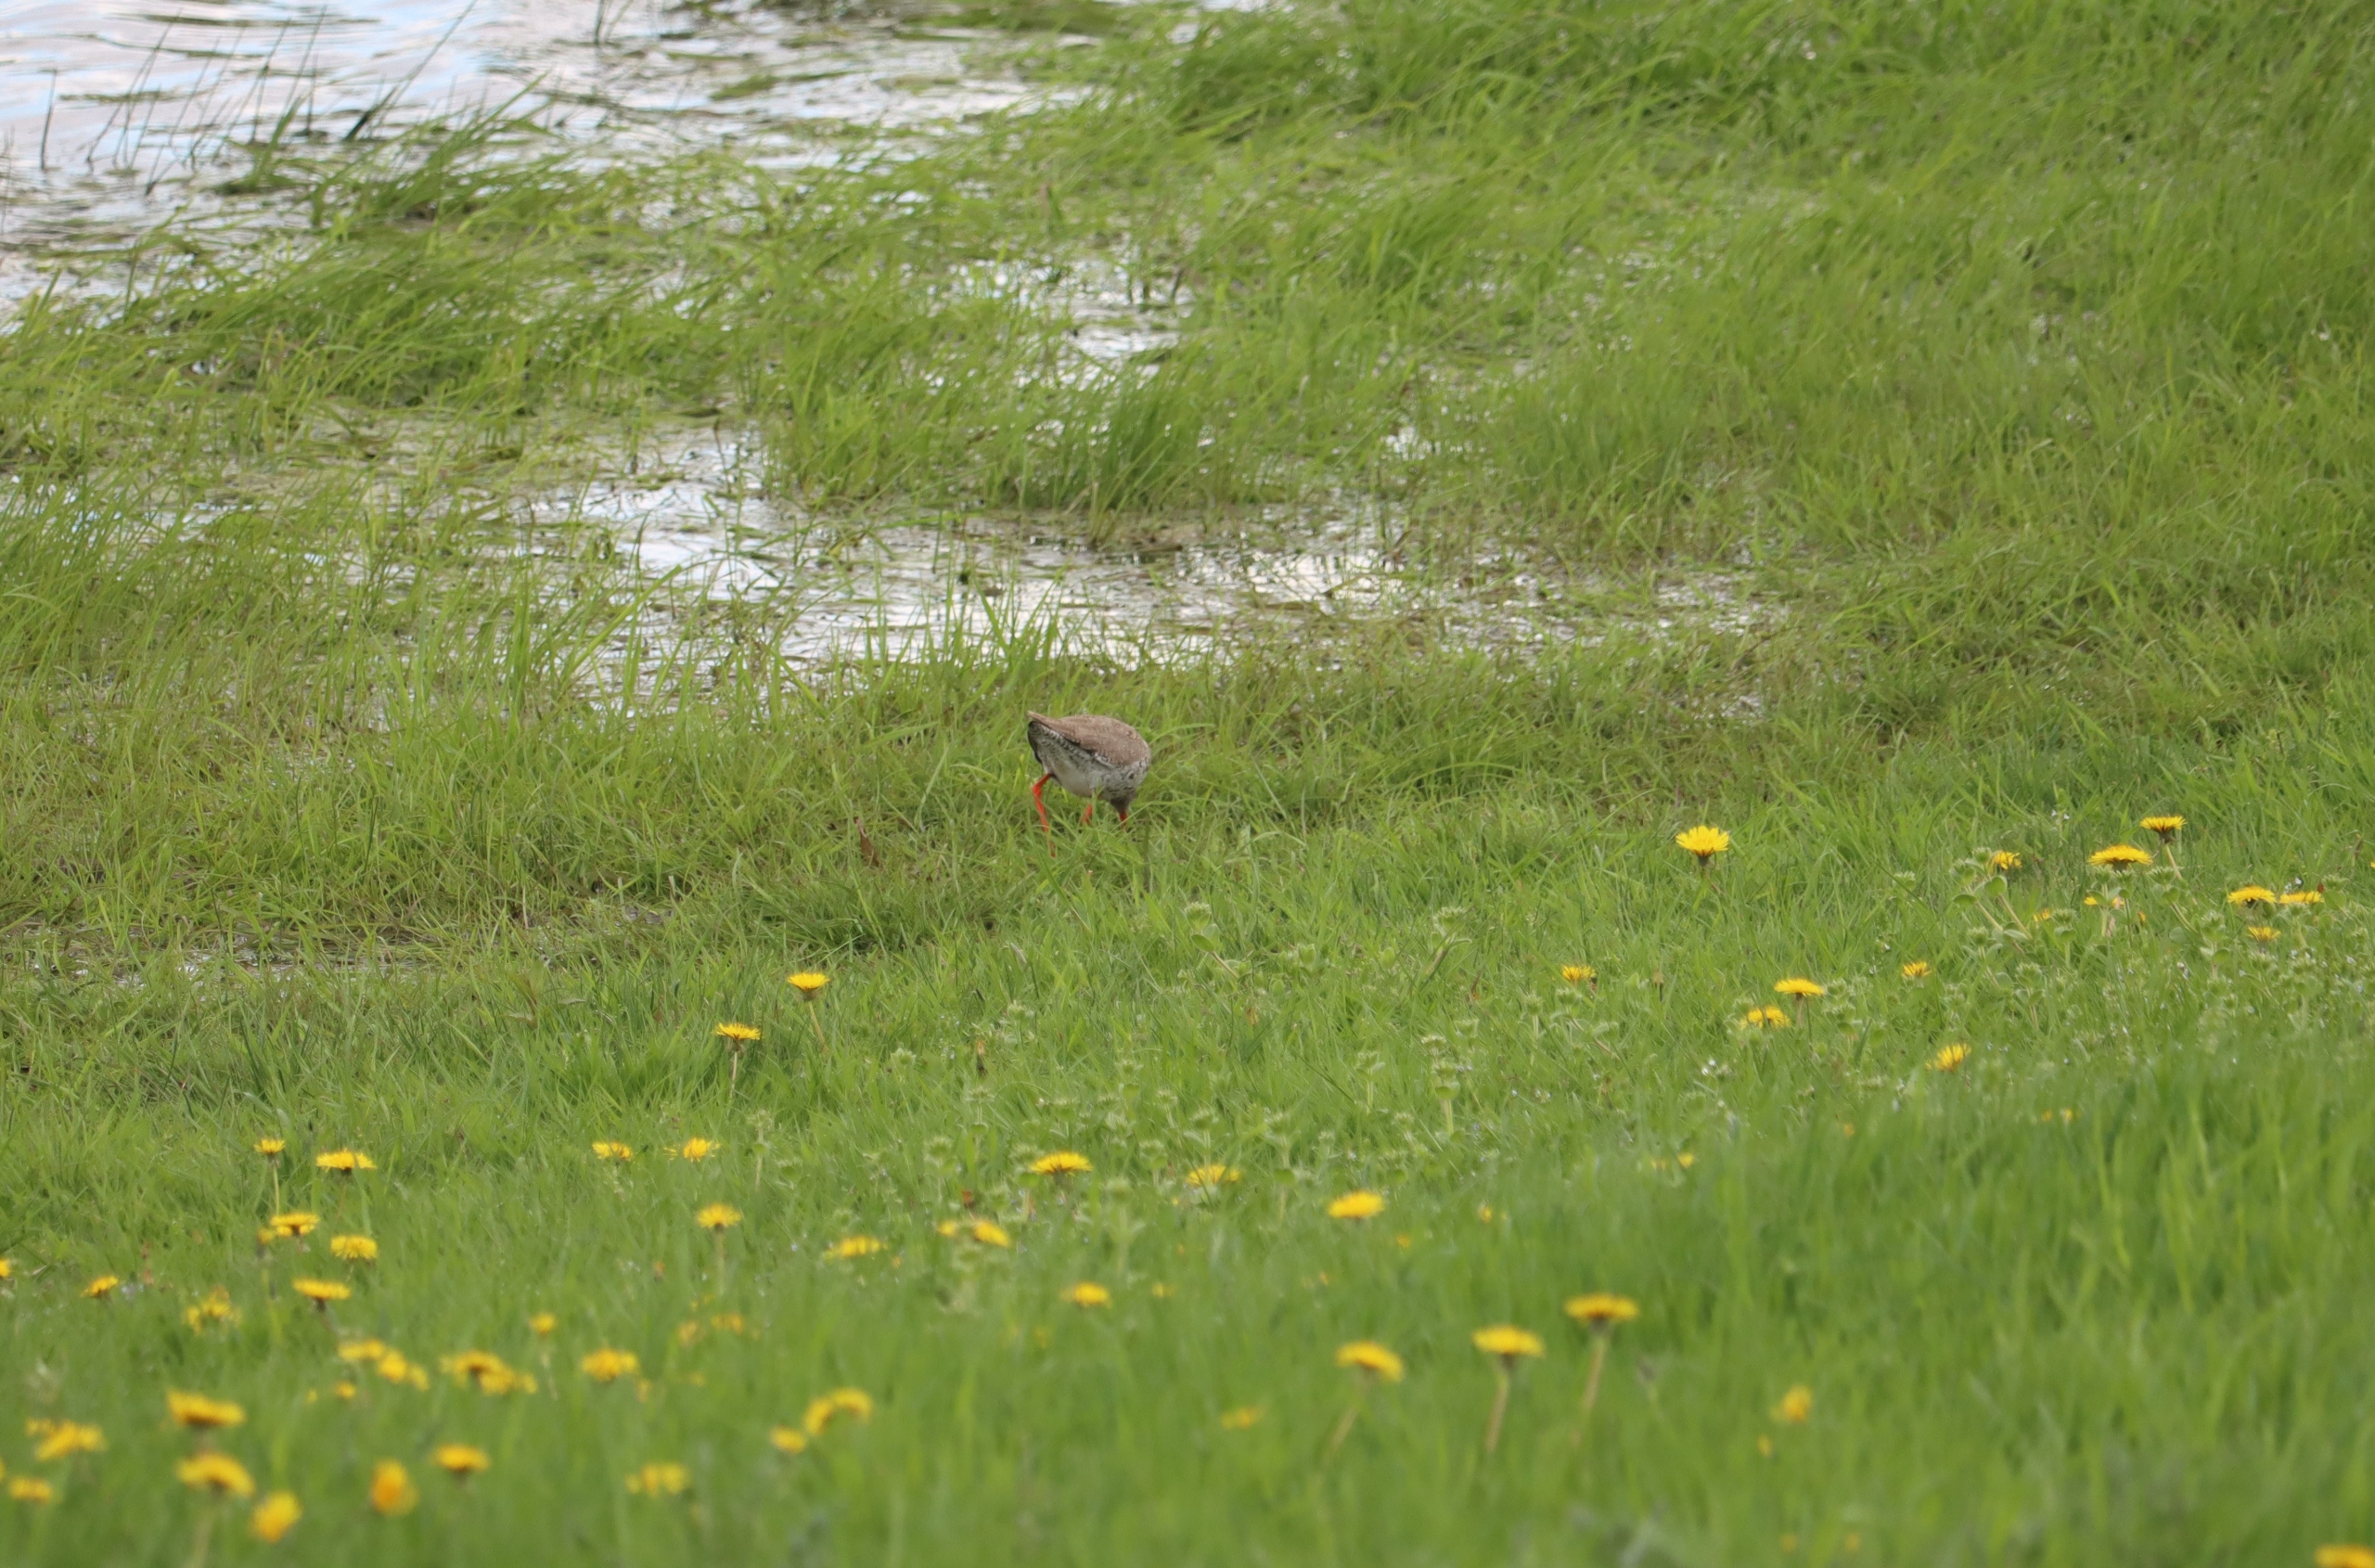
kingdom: Animalia
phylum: Chordata
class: Aves
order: Charadriiformes
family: Scolopacidae
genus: Tringa
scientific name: Tringa totanus
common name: Rødben
